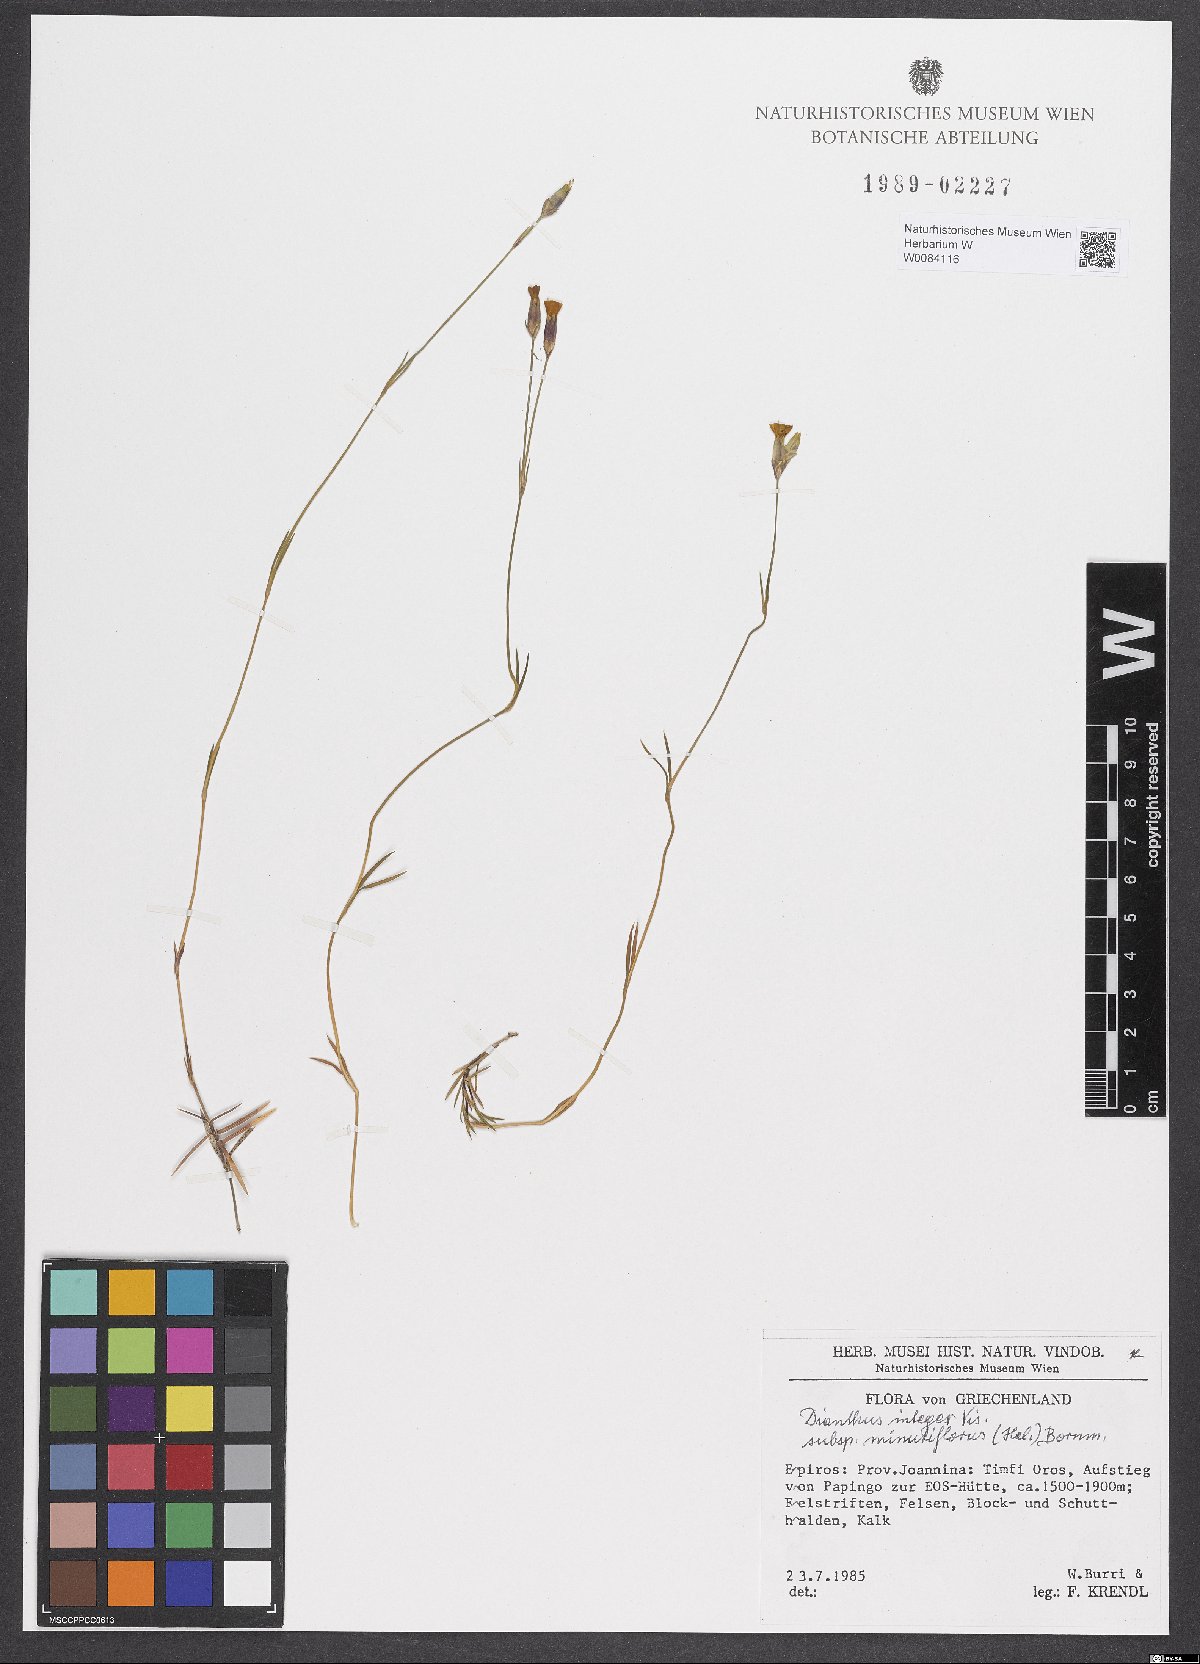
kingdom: Plantae
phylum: Tracheophyta
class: Magnoliopsida
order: Caryophyllales
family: Caryophyllaceae
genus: Dianthus
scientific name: Dianthus integer
